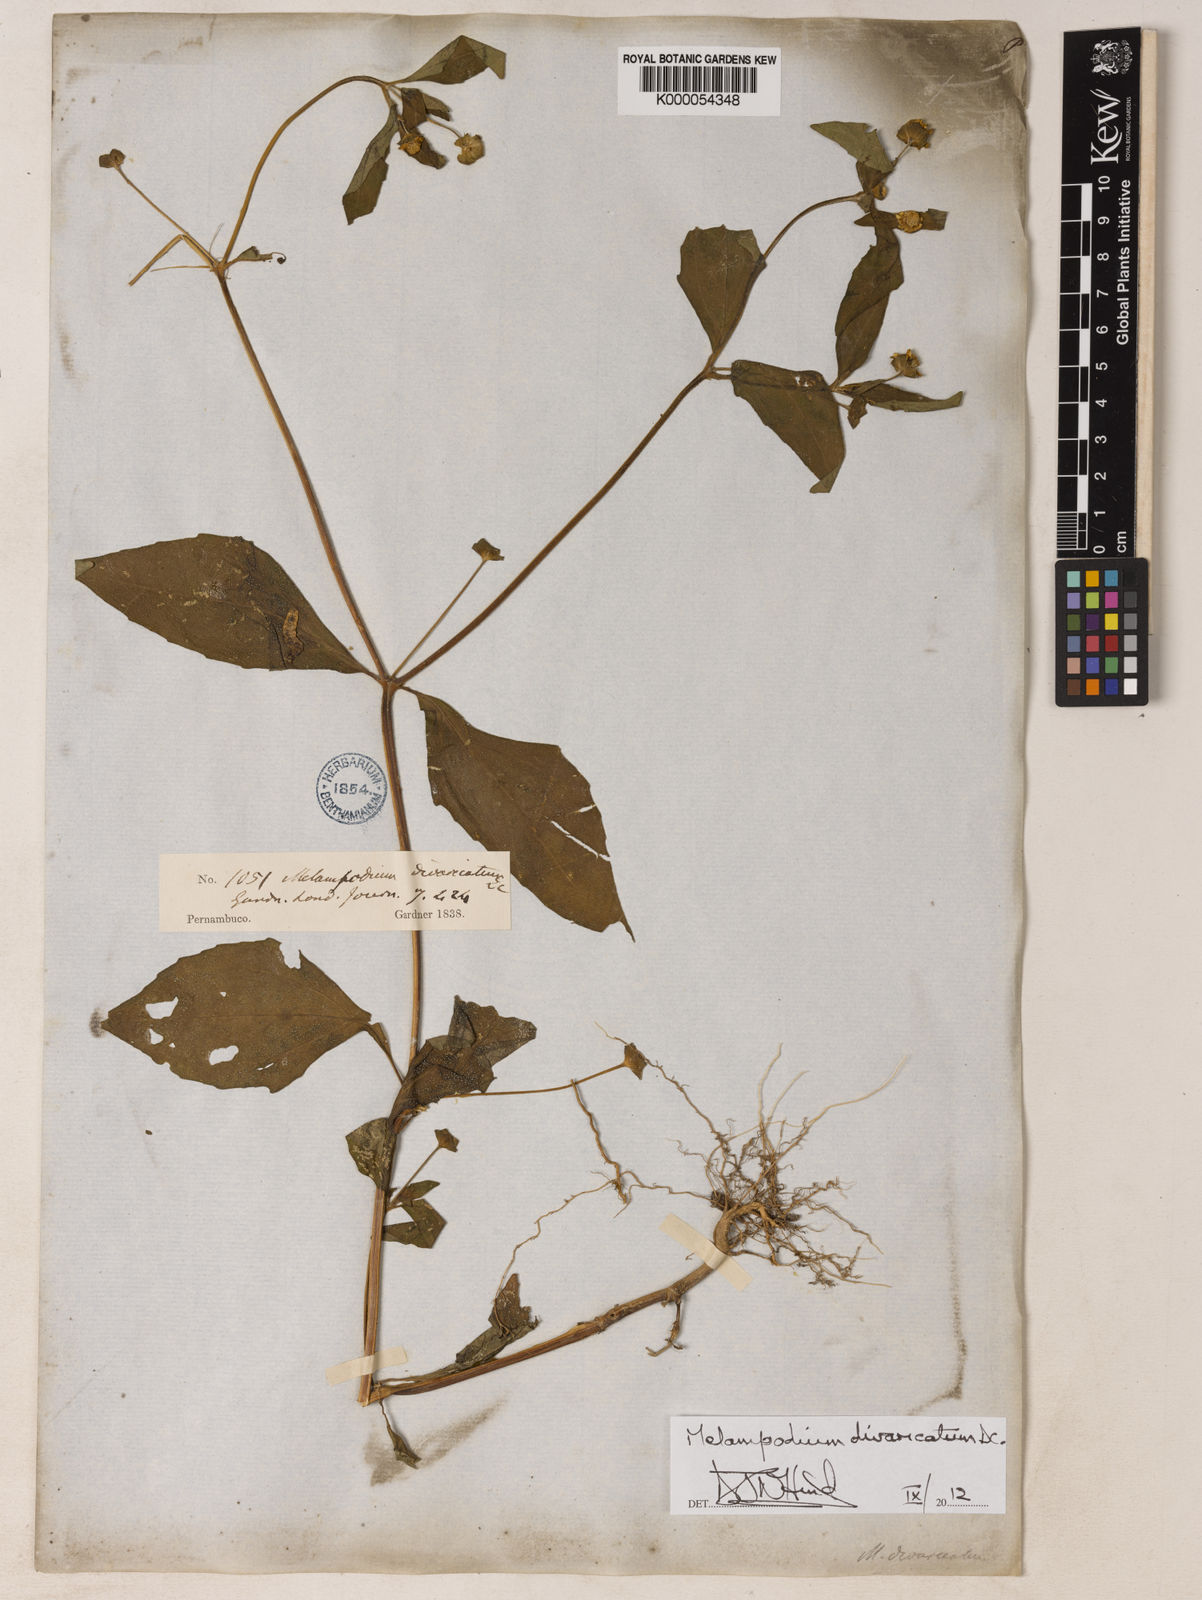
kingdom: Plantae
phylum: Tracheophyta
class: Magnoliopsida
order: Asterales
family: Asteraceae
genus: Melampodium
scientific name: Melampodium divaricatum
